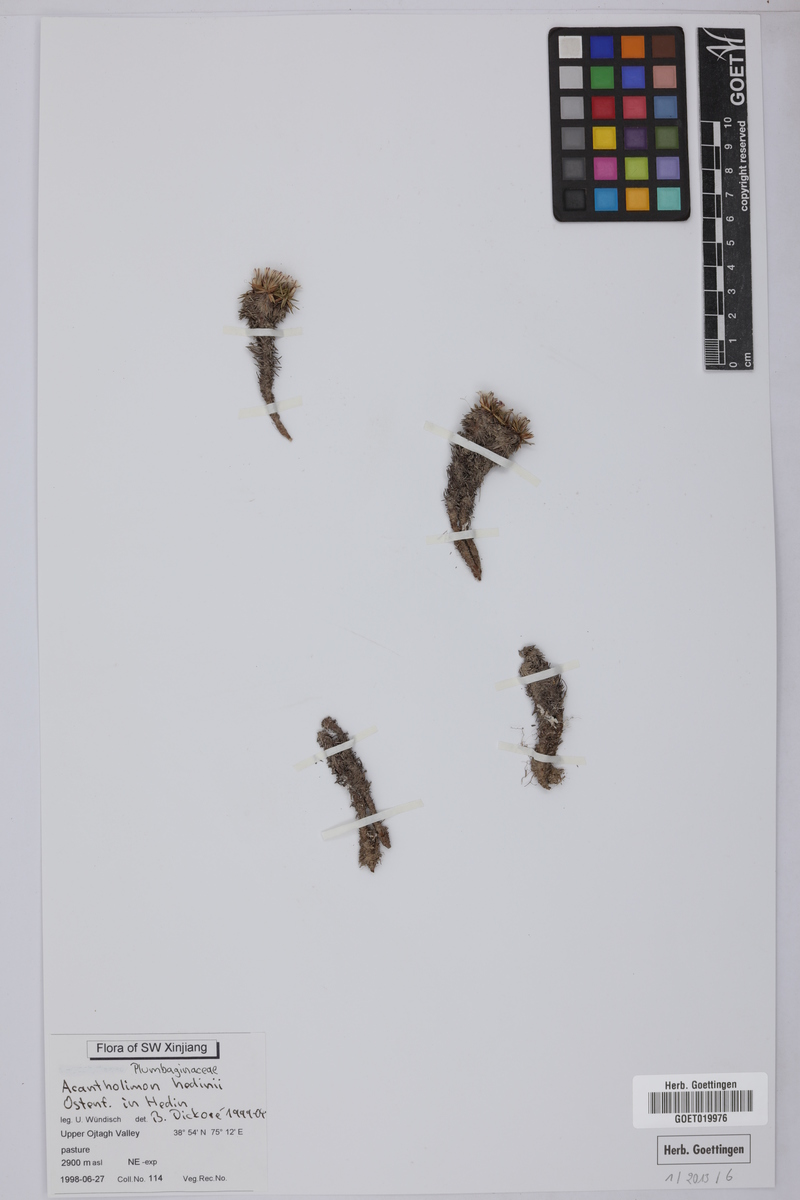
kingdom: Plantae
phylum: Tracheophyta
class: Magnoliopsida
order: Caryophyllales
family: Plumbaginaceae
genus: Acantholimon
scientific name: Acantholimon hedinii
